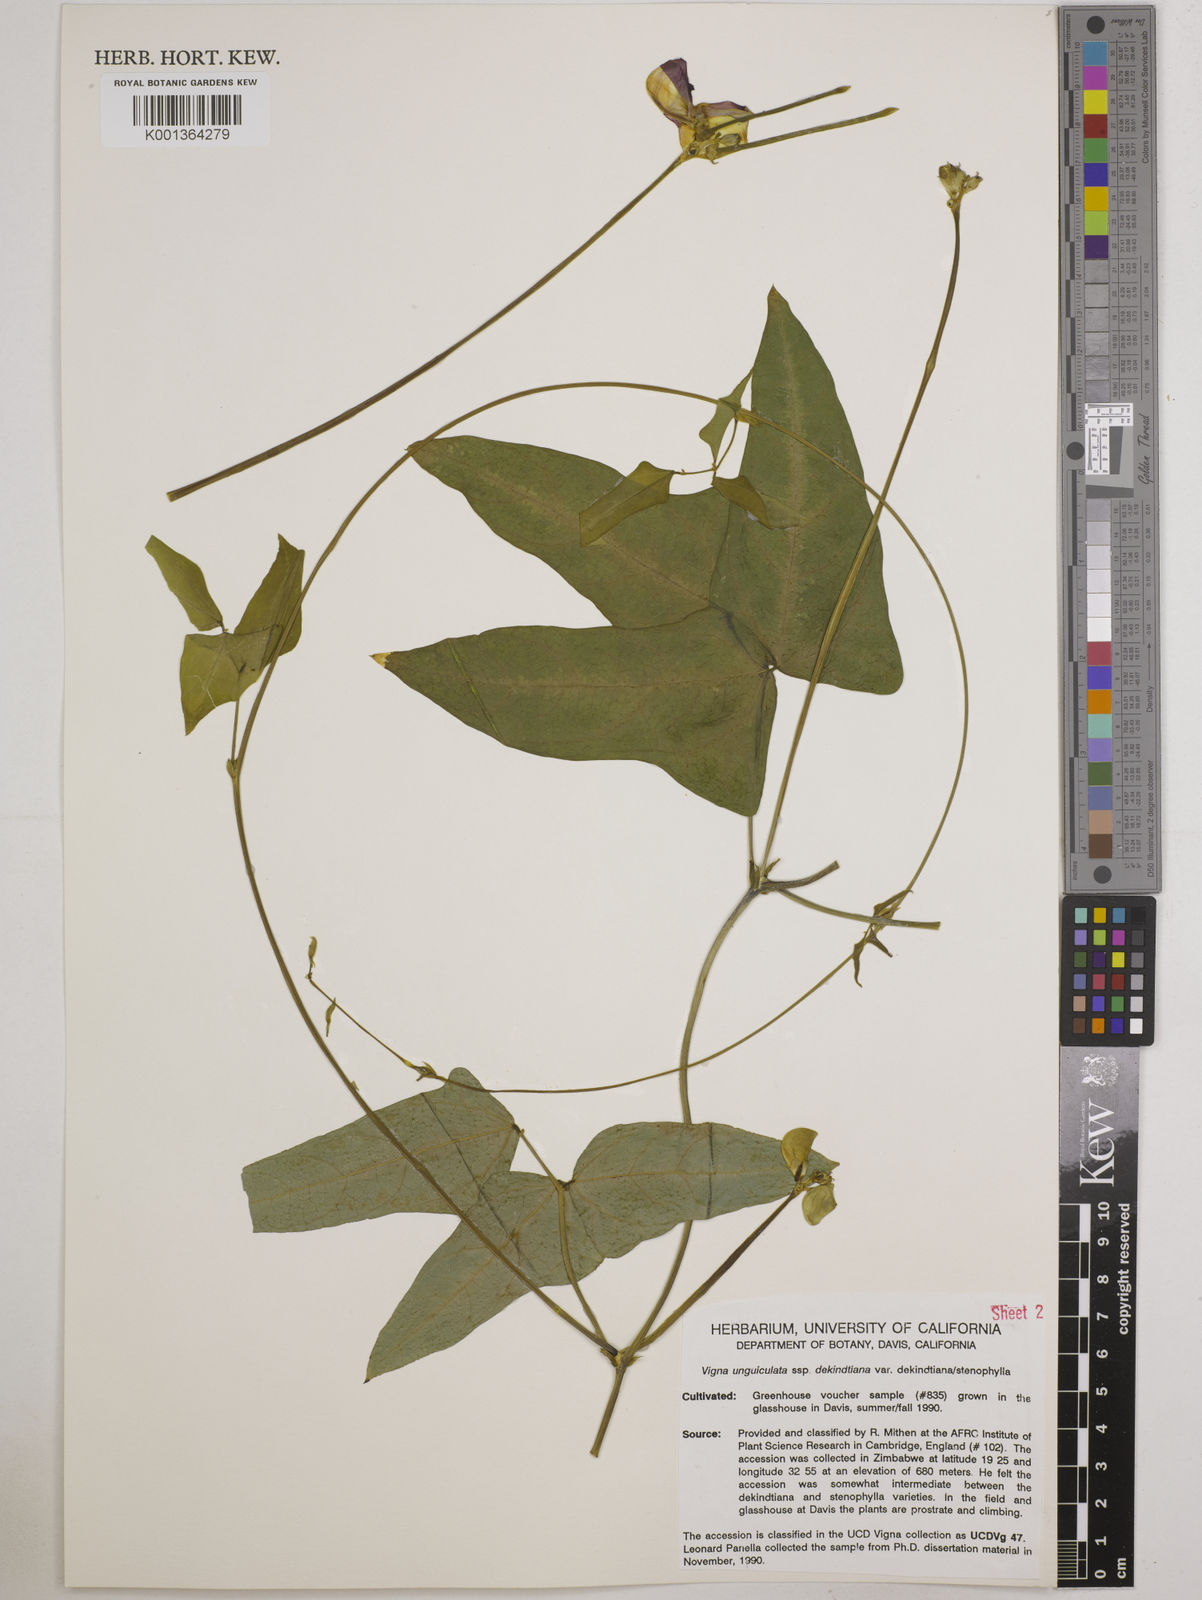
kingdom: Plantae
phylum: Tracheophyta
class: Magnoliopsida
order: Fabales
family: Fabaceae
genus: Vigna
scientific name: Vigna
